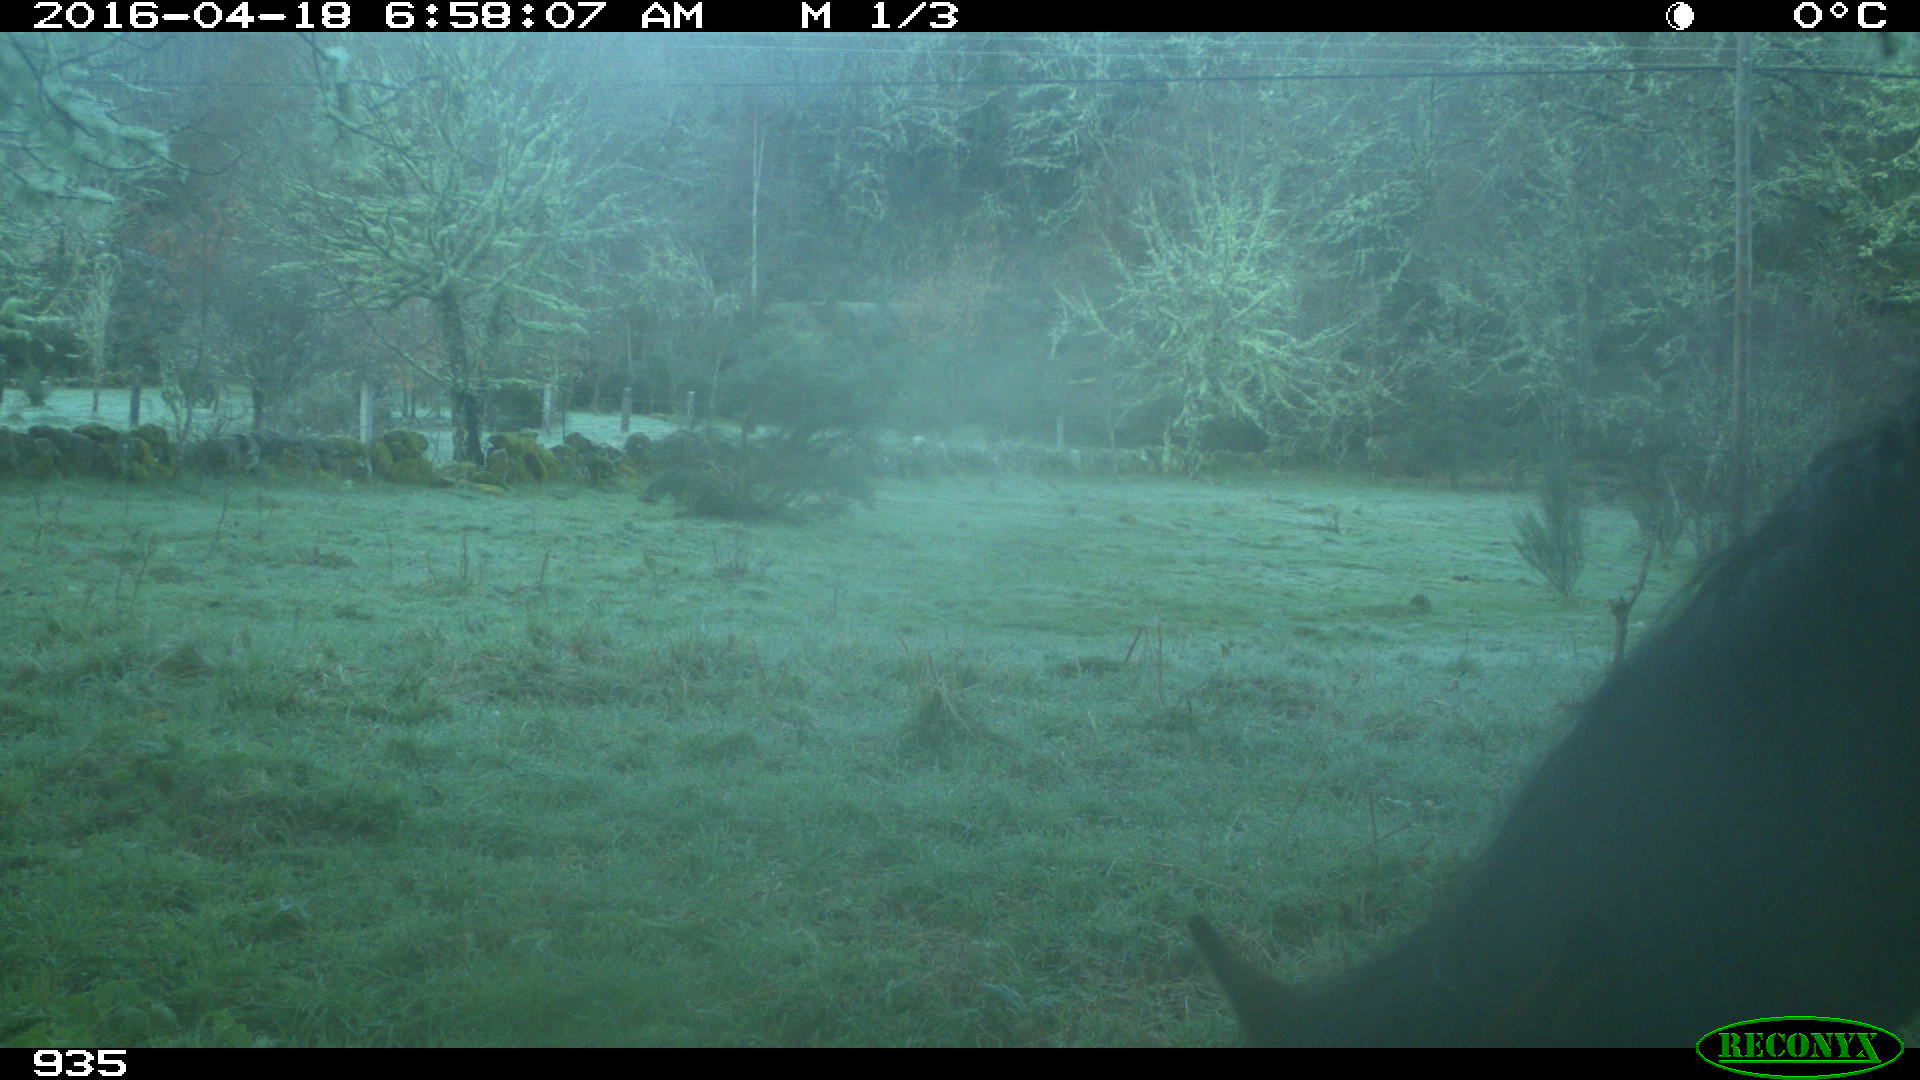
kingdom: Animalia
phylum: Chordata
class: Mammalia
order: Carnivora
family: Canidae
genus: Vulpes
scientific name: Vulpes vulpes
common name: Red fox
